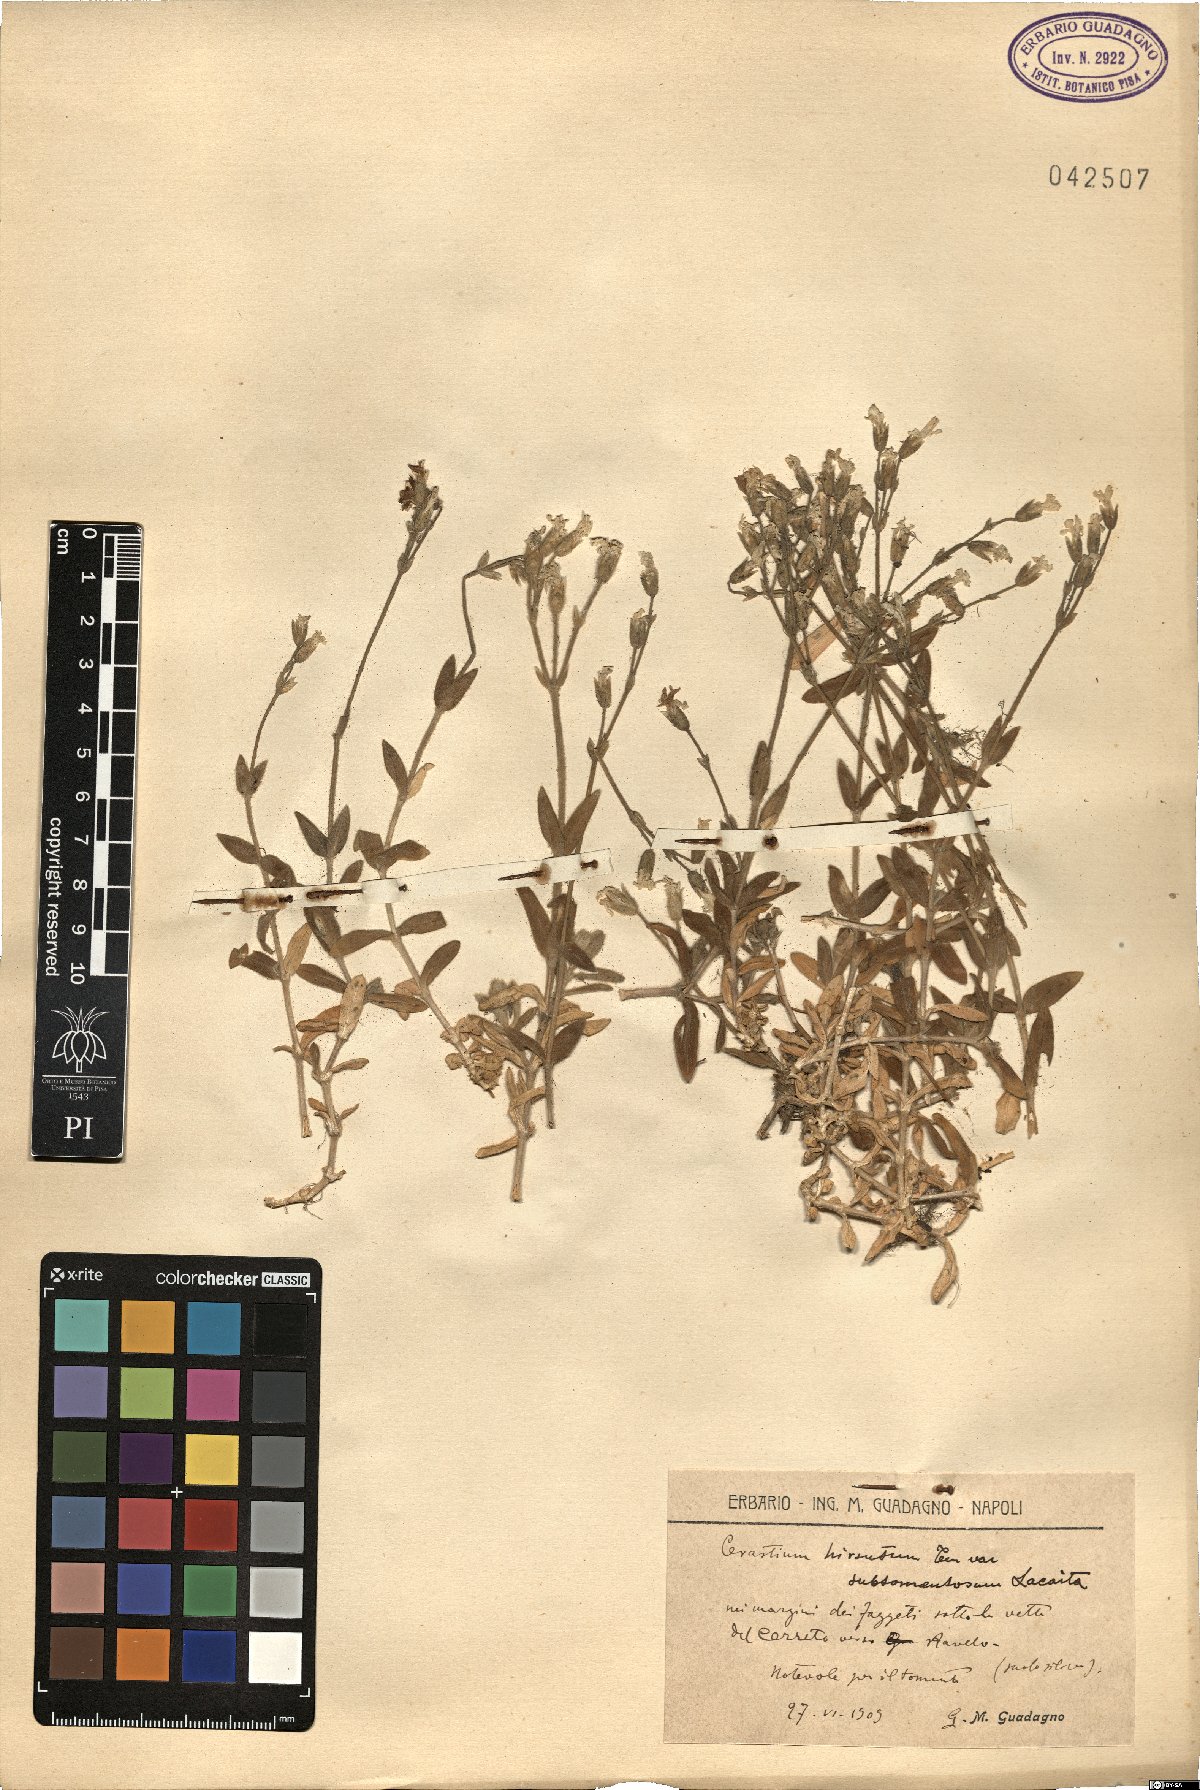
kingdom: Plantae
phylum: Tracheophyta
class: Magnoliopsida
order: Caryophyllales
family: Caryophyllaceae
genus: Cerastium
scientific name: Cerastium
